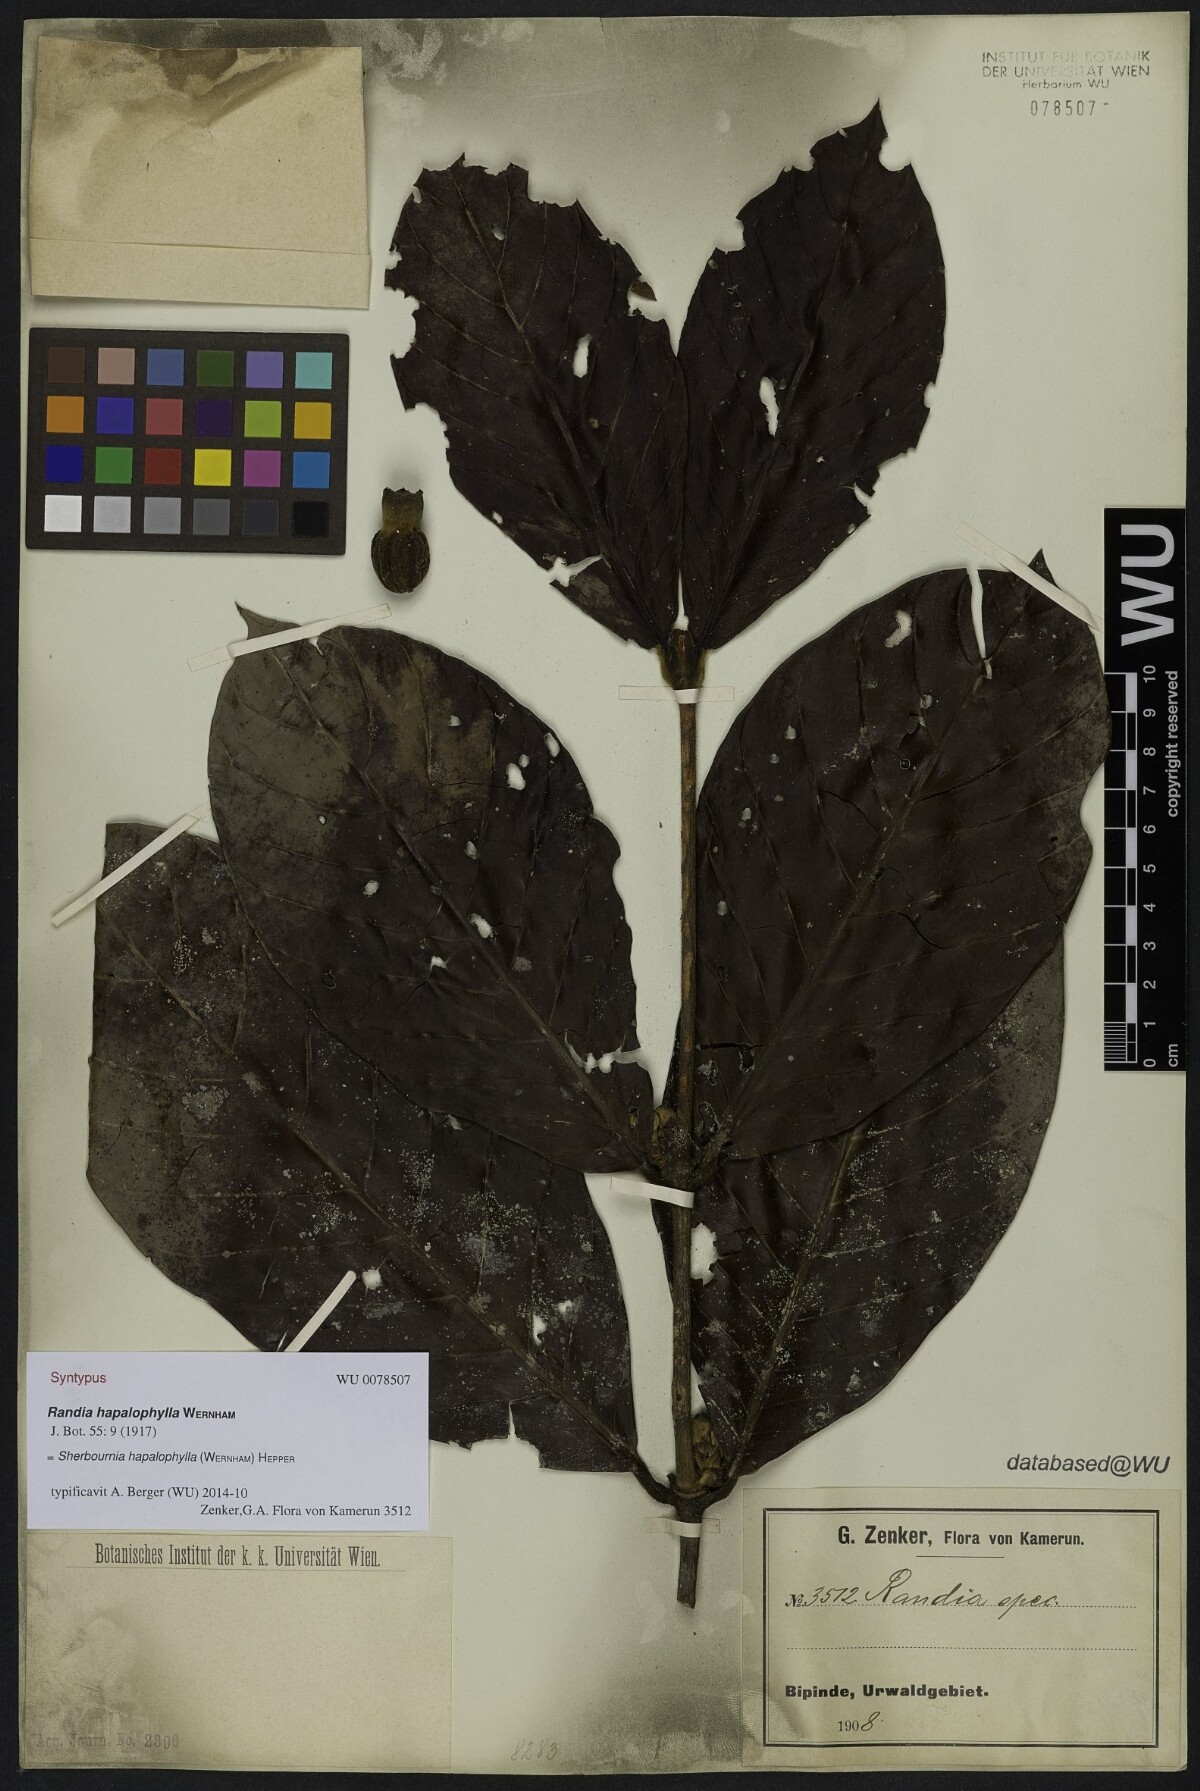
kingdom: Plantae
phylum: Tracheophyta
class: Magnoliopsida
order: Gentianales
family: Rubiaceae
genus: Sherbournia
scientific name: Sherbournia hapalophylla
